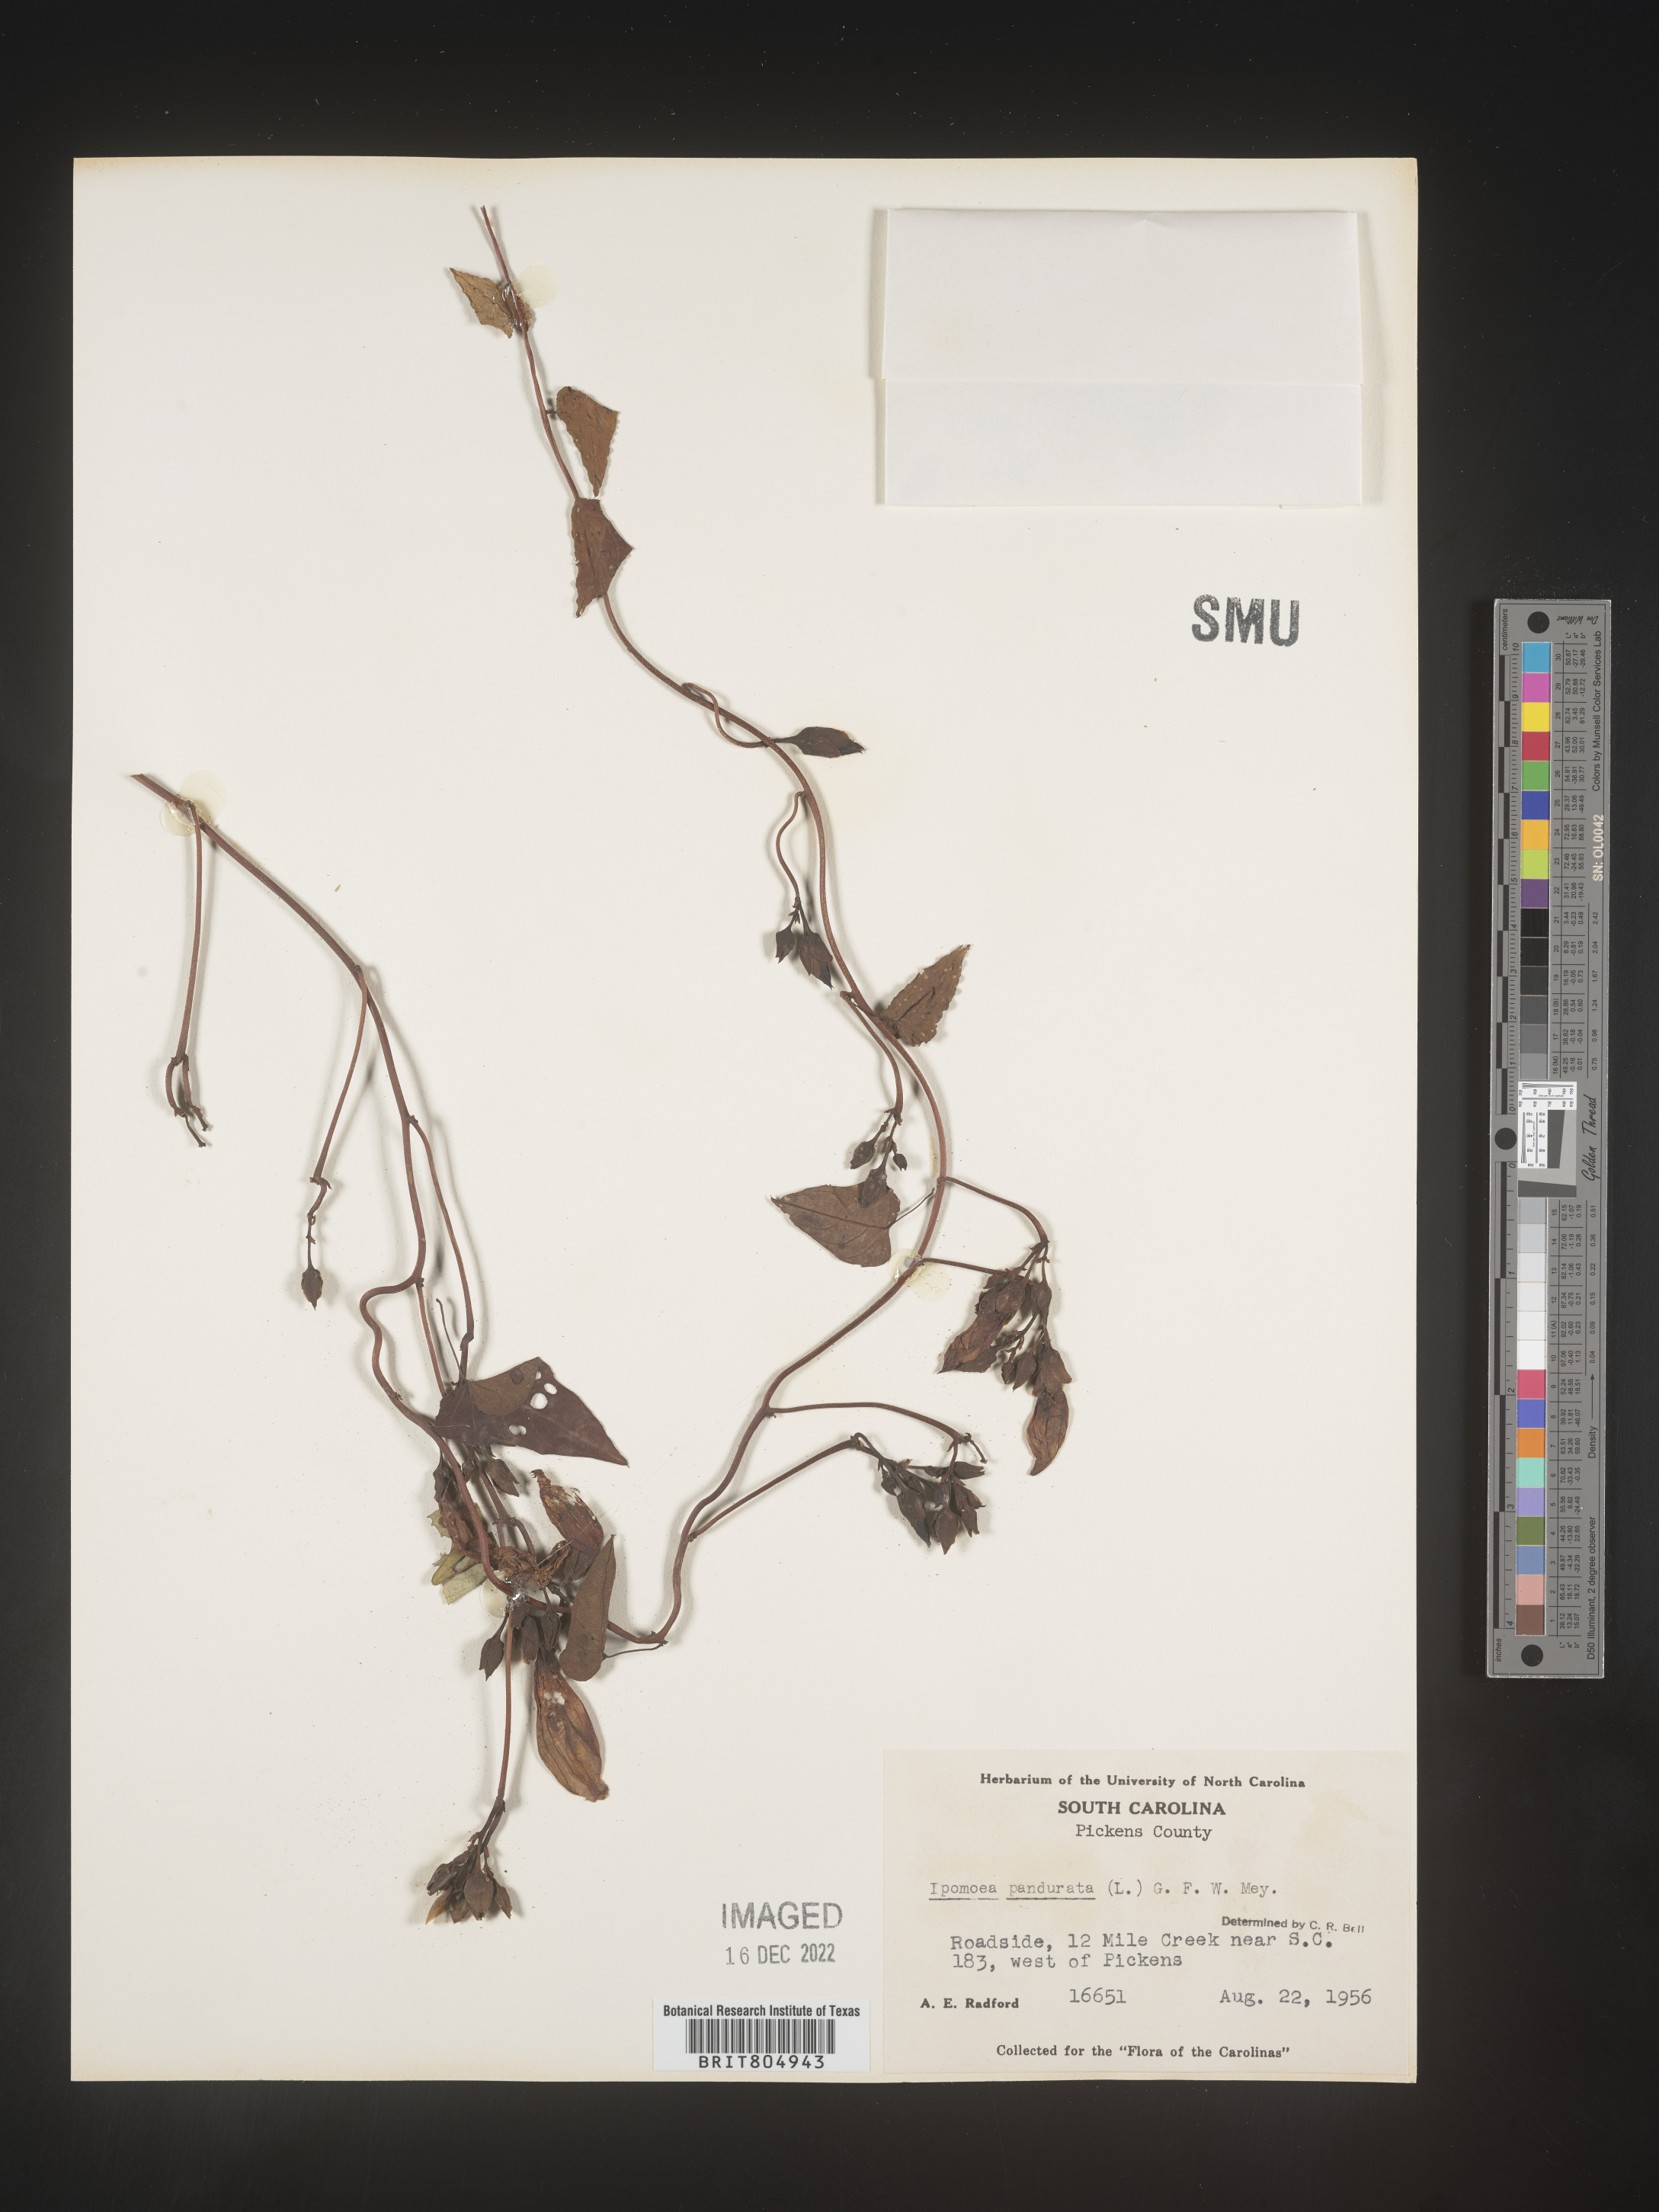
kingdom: Plantae
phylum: Tracheophyta
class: Magnoliopsida
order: Solanales
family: Convolvulaceae
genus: Ipomoea
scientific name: Ipomoea pandurata
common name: Man-of-the-earth
